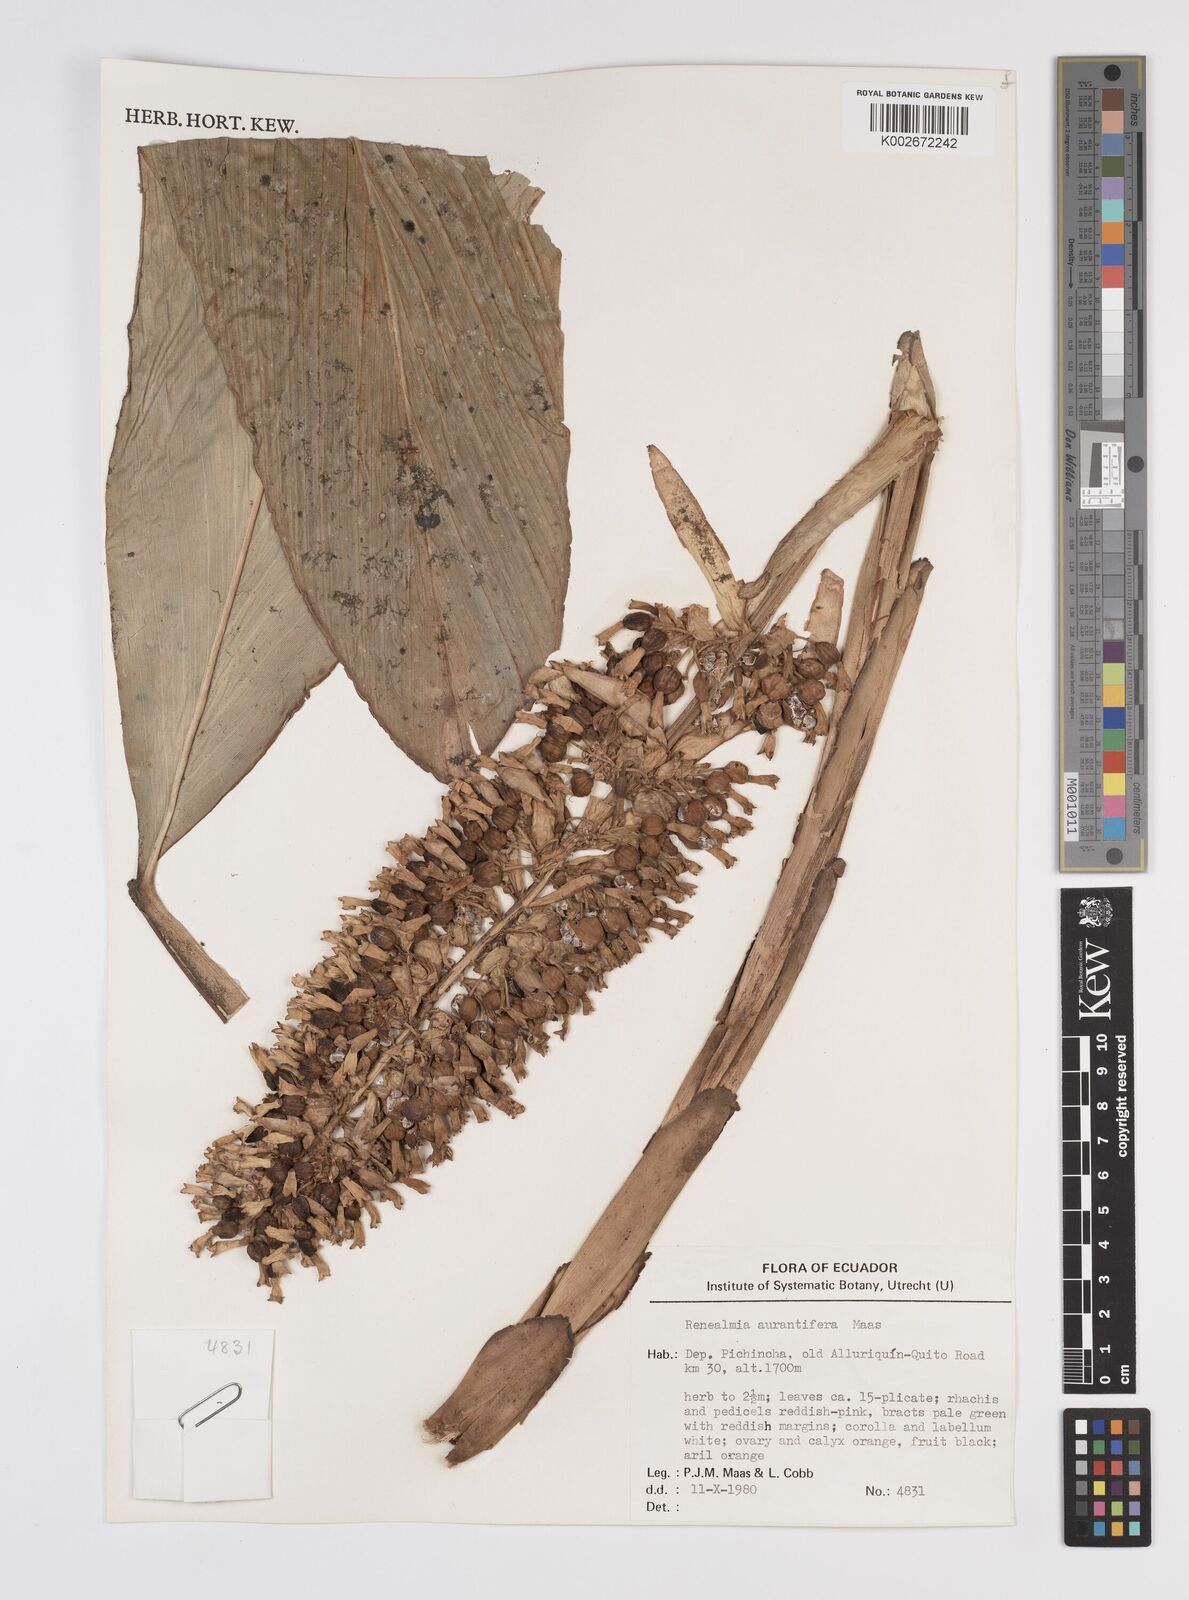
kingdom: Plantae
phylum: Tracheophyta
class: Liliopsida
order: Zingiberales
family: Zingiberaceae
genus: Renealmia
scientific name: Renealmia aurantiifera
